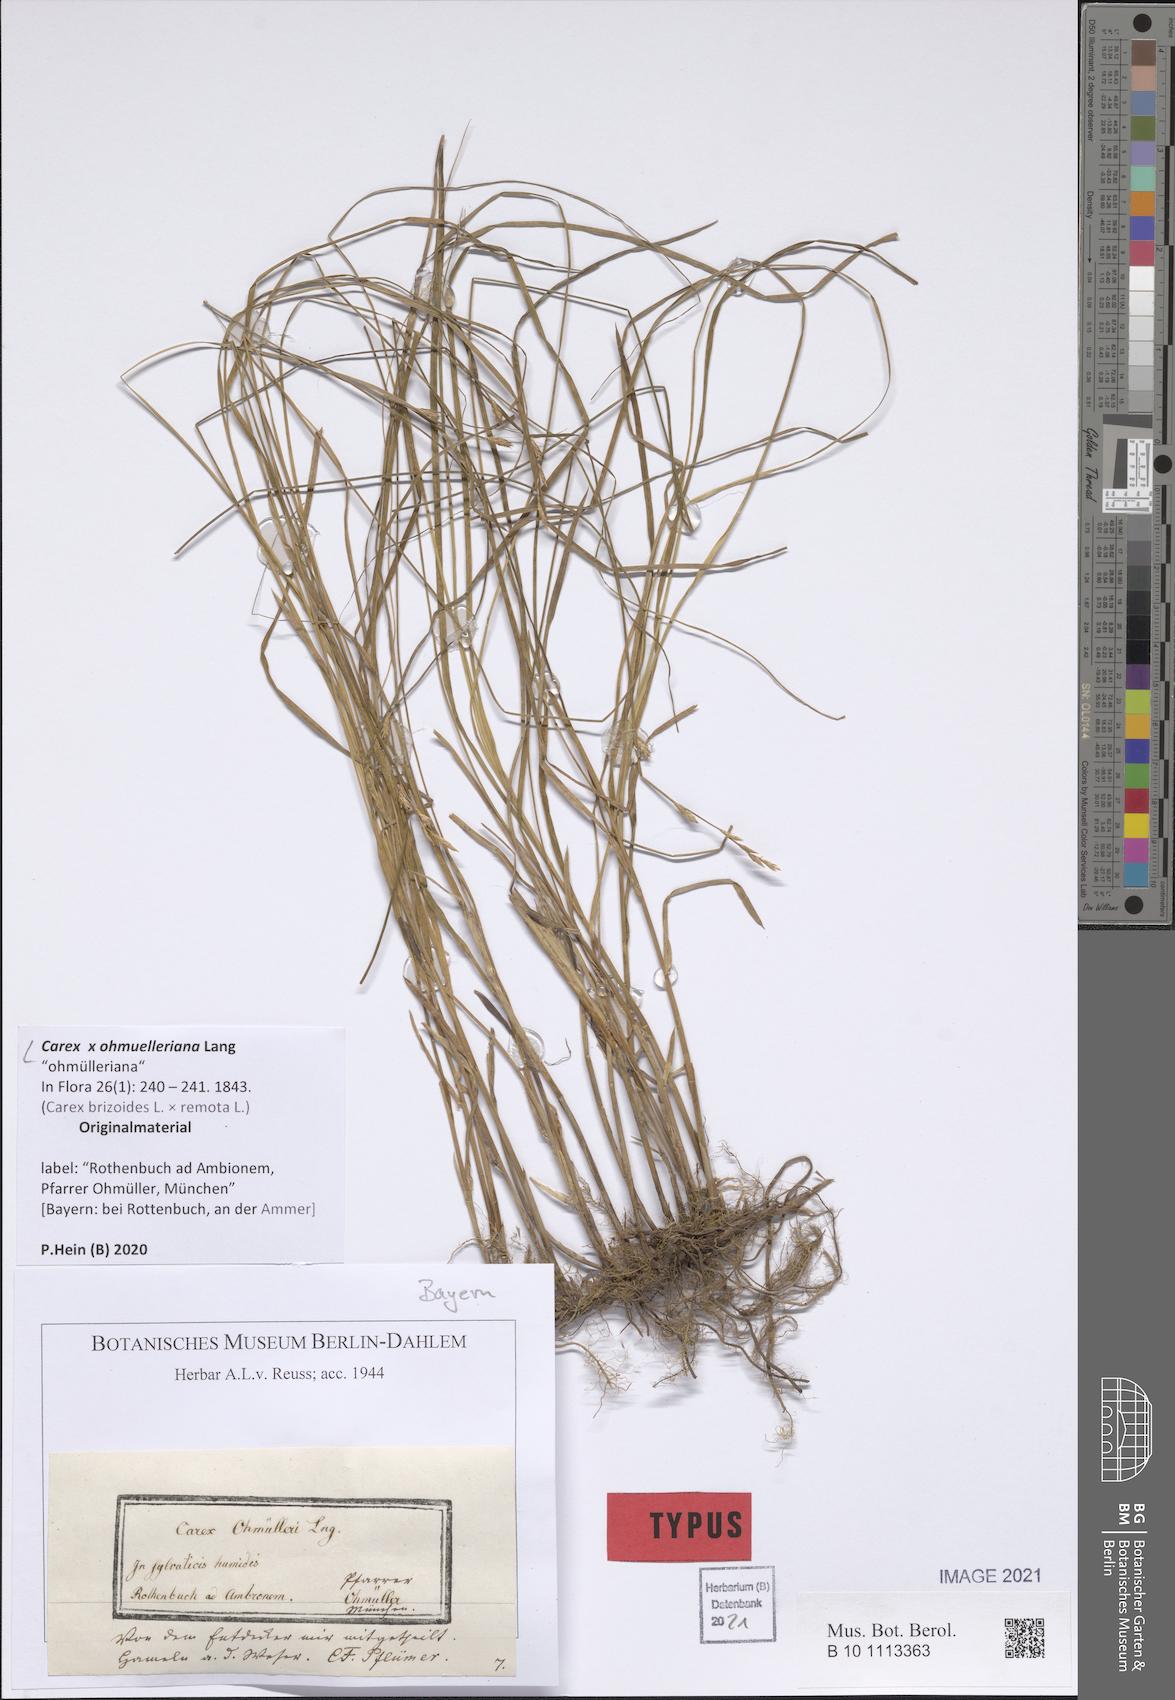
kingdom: Plantae
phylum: Tracheophyta
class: Liliopsida
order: Poales
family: Cyperaceae
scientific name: Cyperaceae
